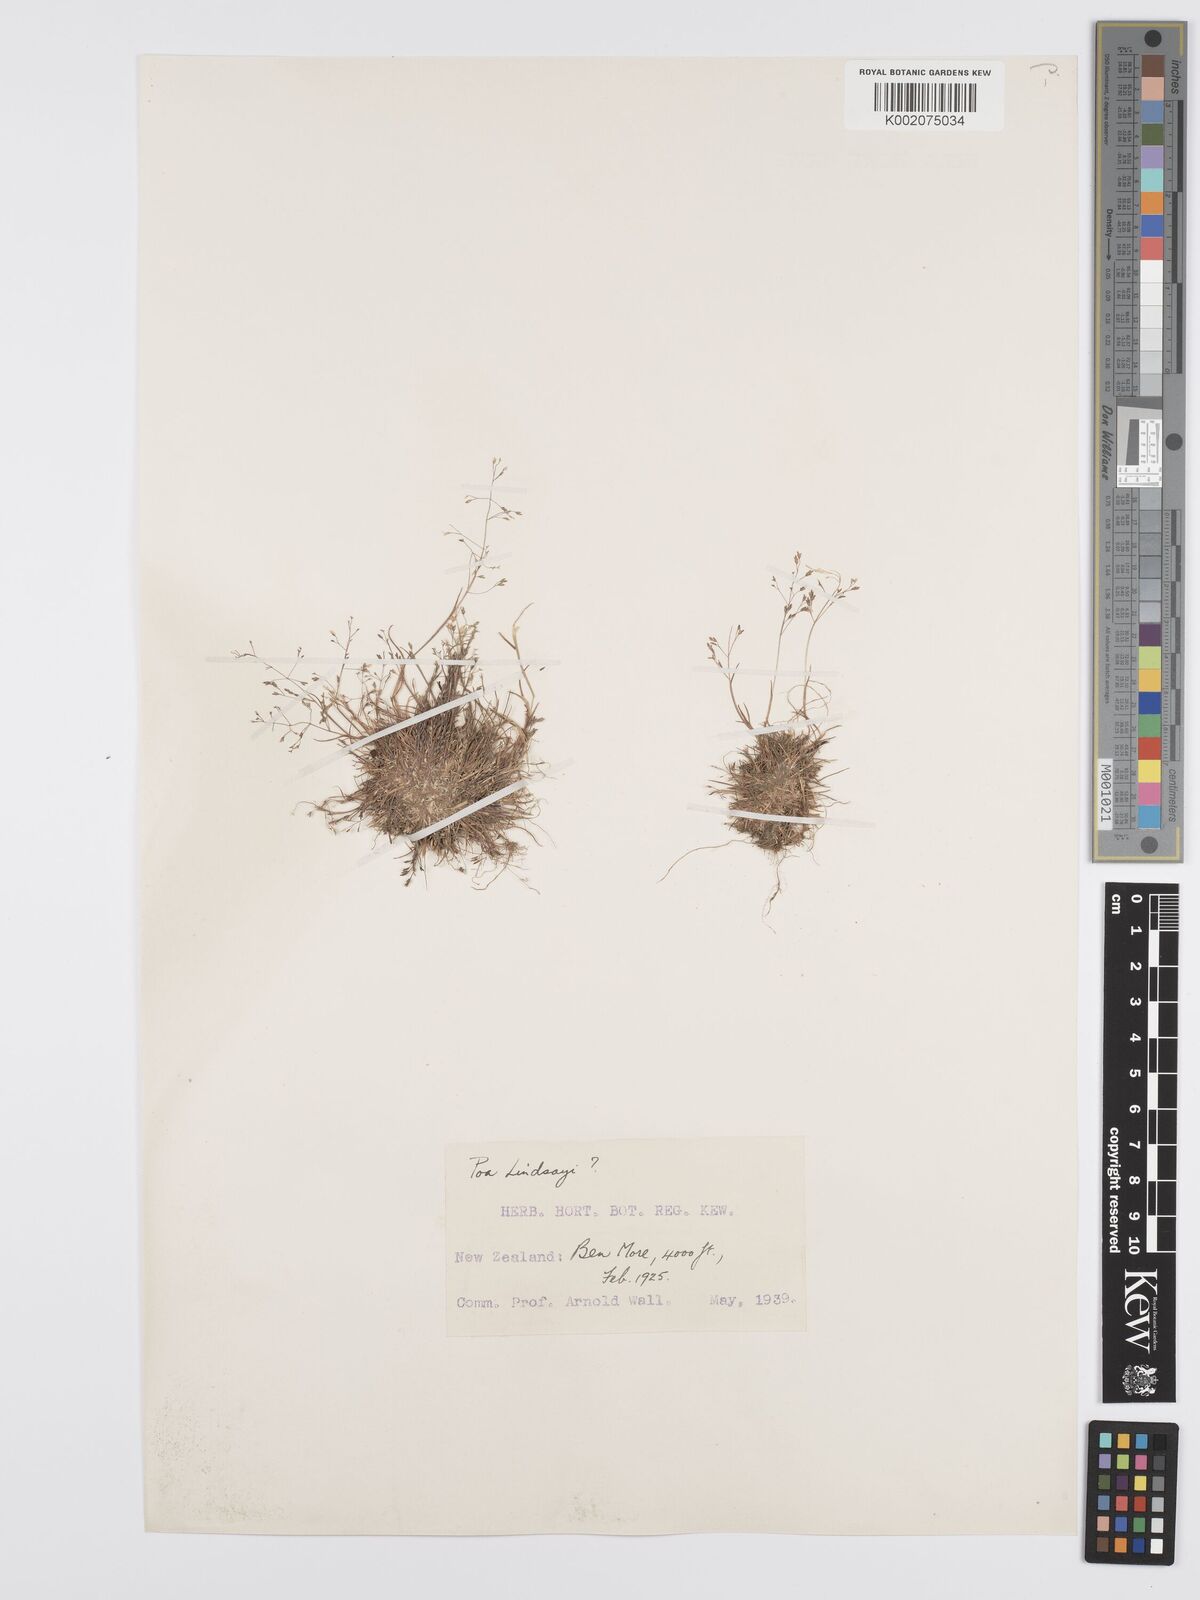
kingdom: Plantae
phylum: Tracheophyta
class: Liliopsida
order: Poales
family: Poaceae
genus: Poa
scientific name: Poa lindsayi
